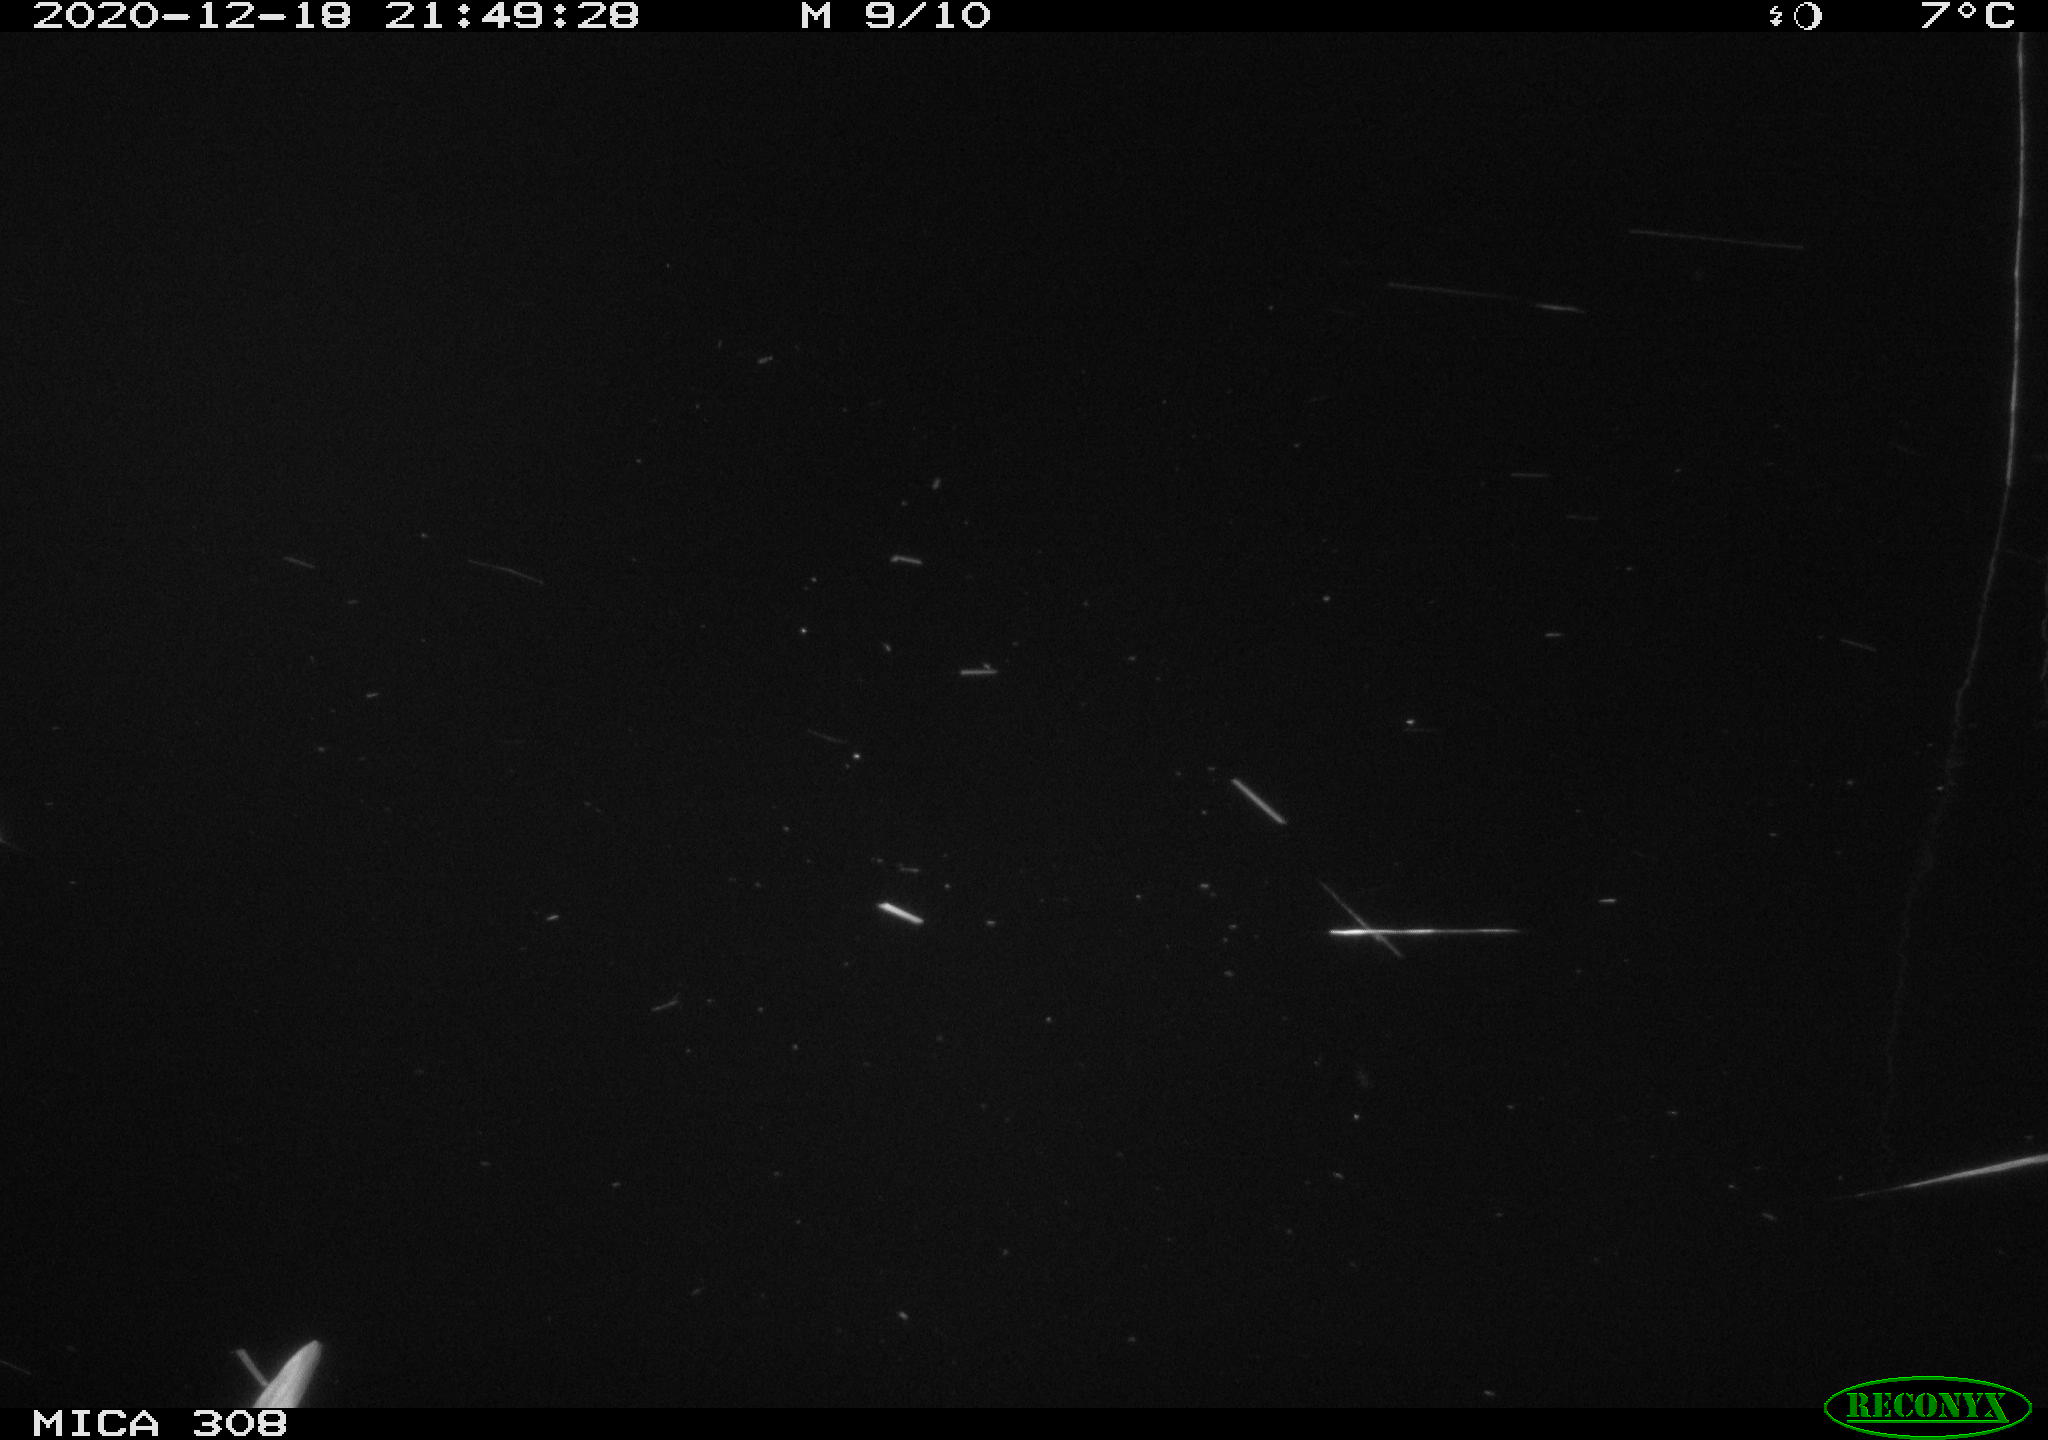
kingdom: Animalia
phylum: Chordata
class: Mammalia
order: Rodentia
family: Muridae
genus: Rattus
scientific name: Rattus norvegicus
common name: Brown rat
